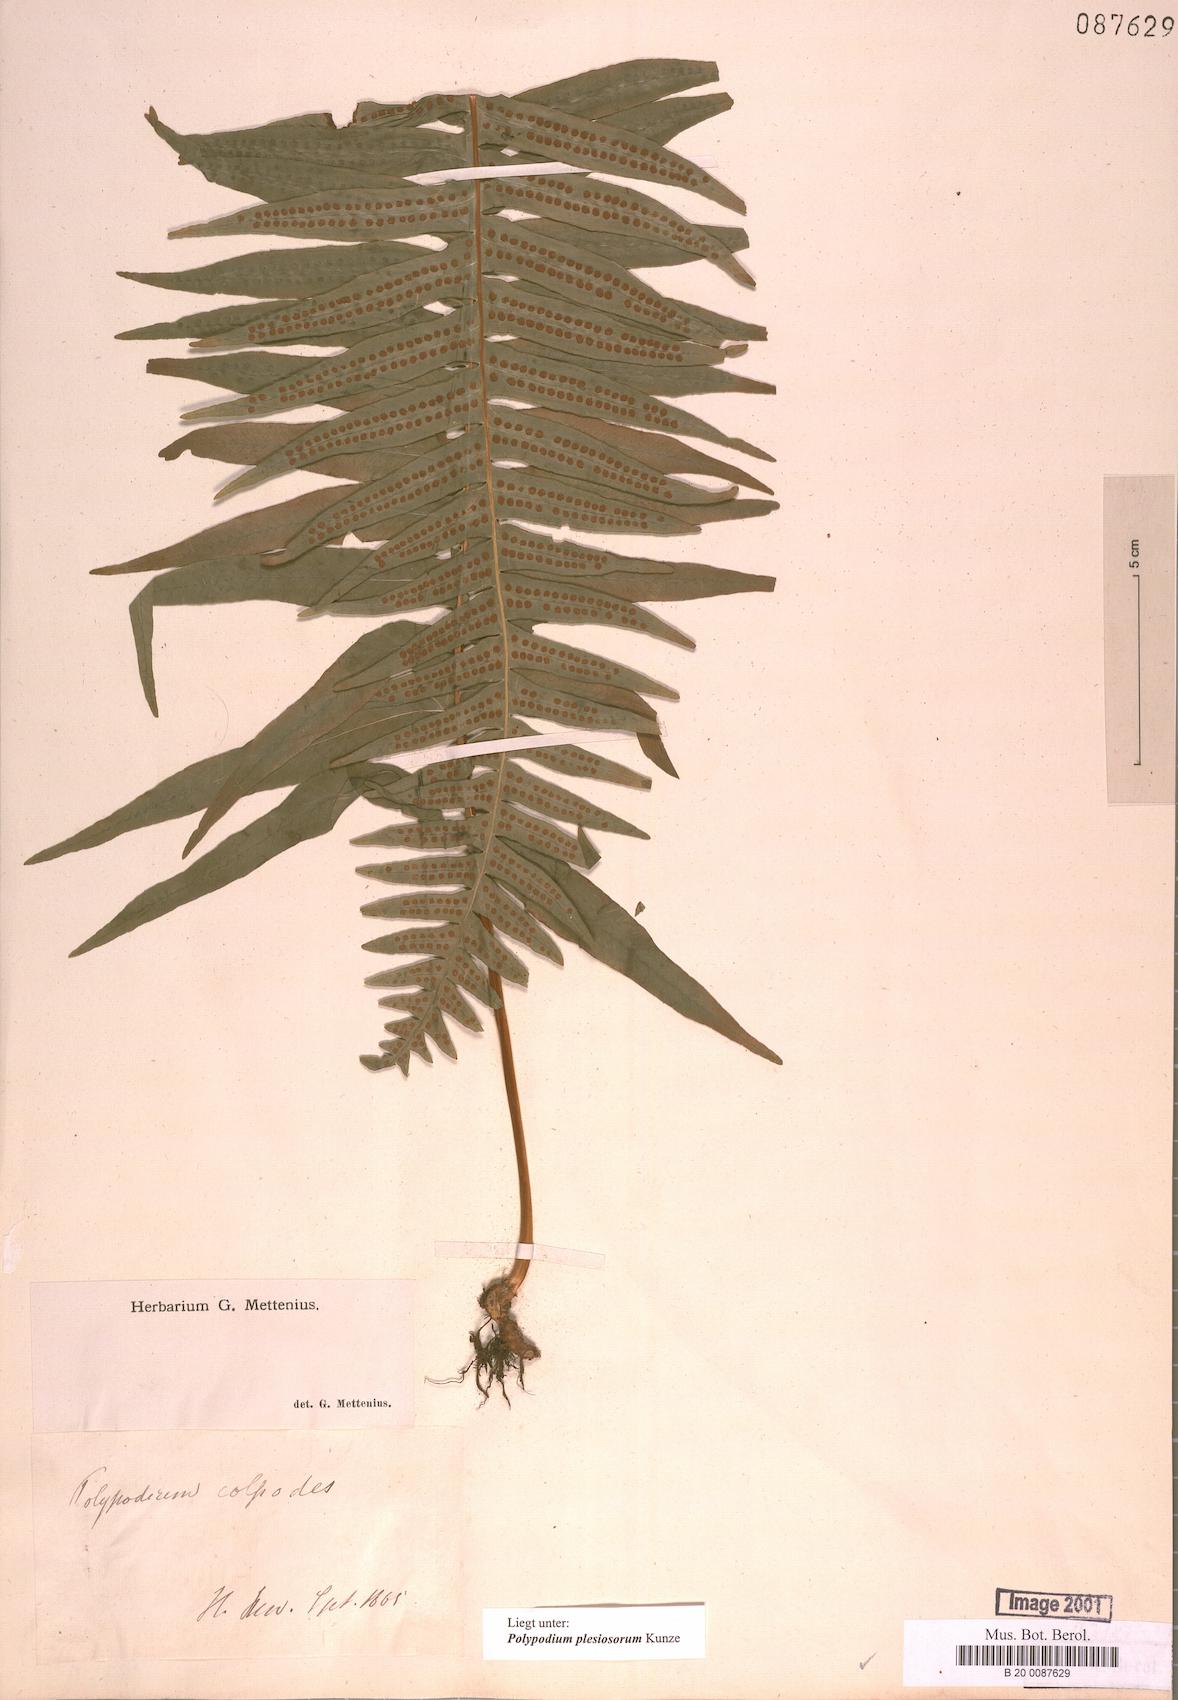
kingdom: Plantae
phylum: Tracheophyta
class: Polypodiopsida
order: Polypodiales
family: Polypodiaceae
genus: Polypodium
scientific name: Polypodium plesiosorum
